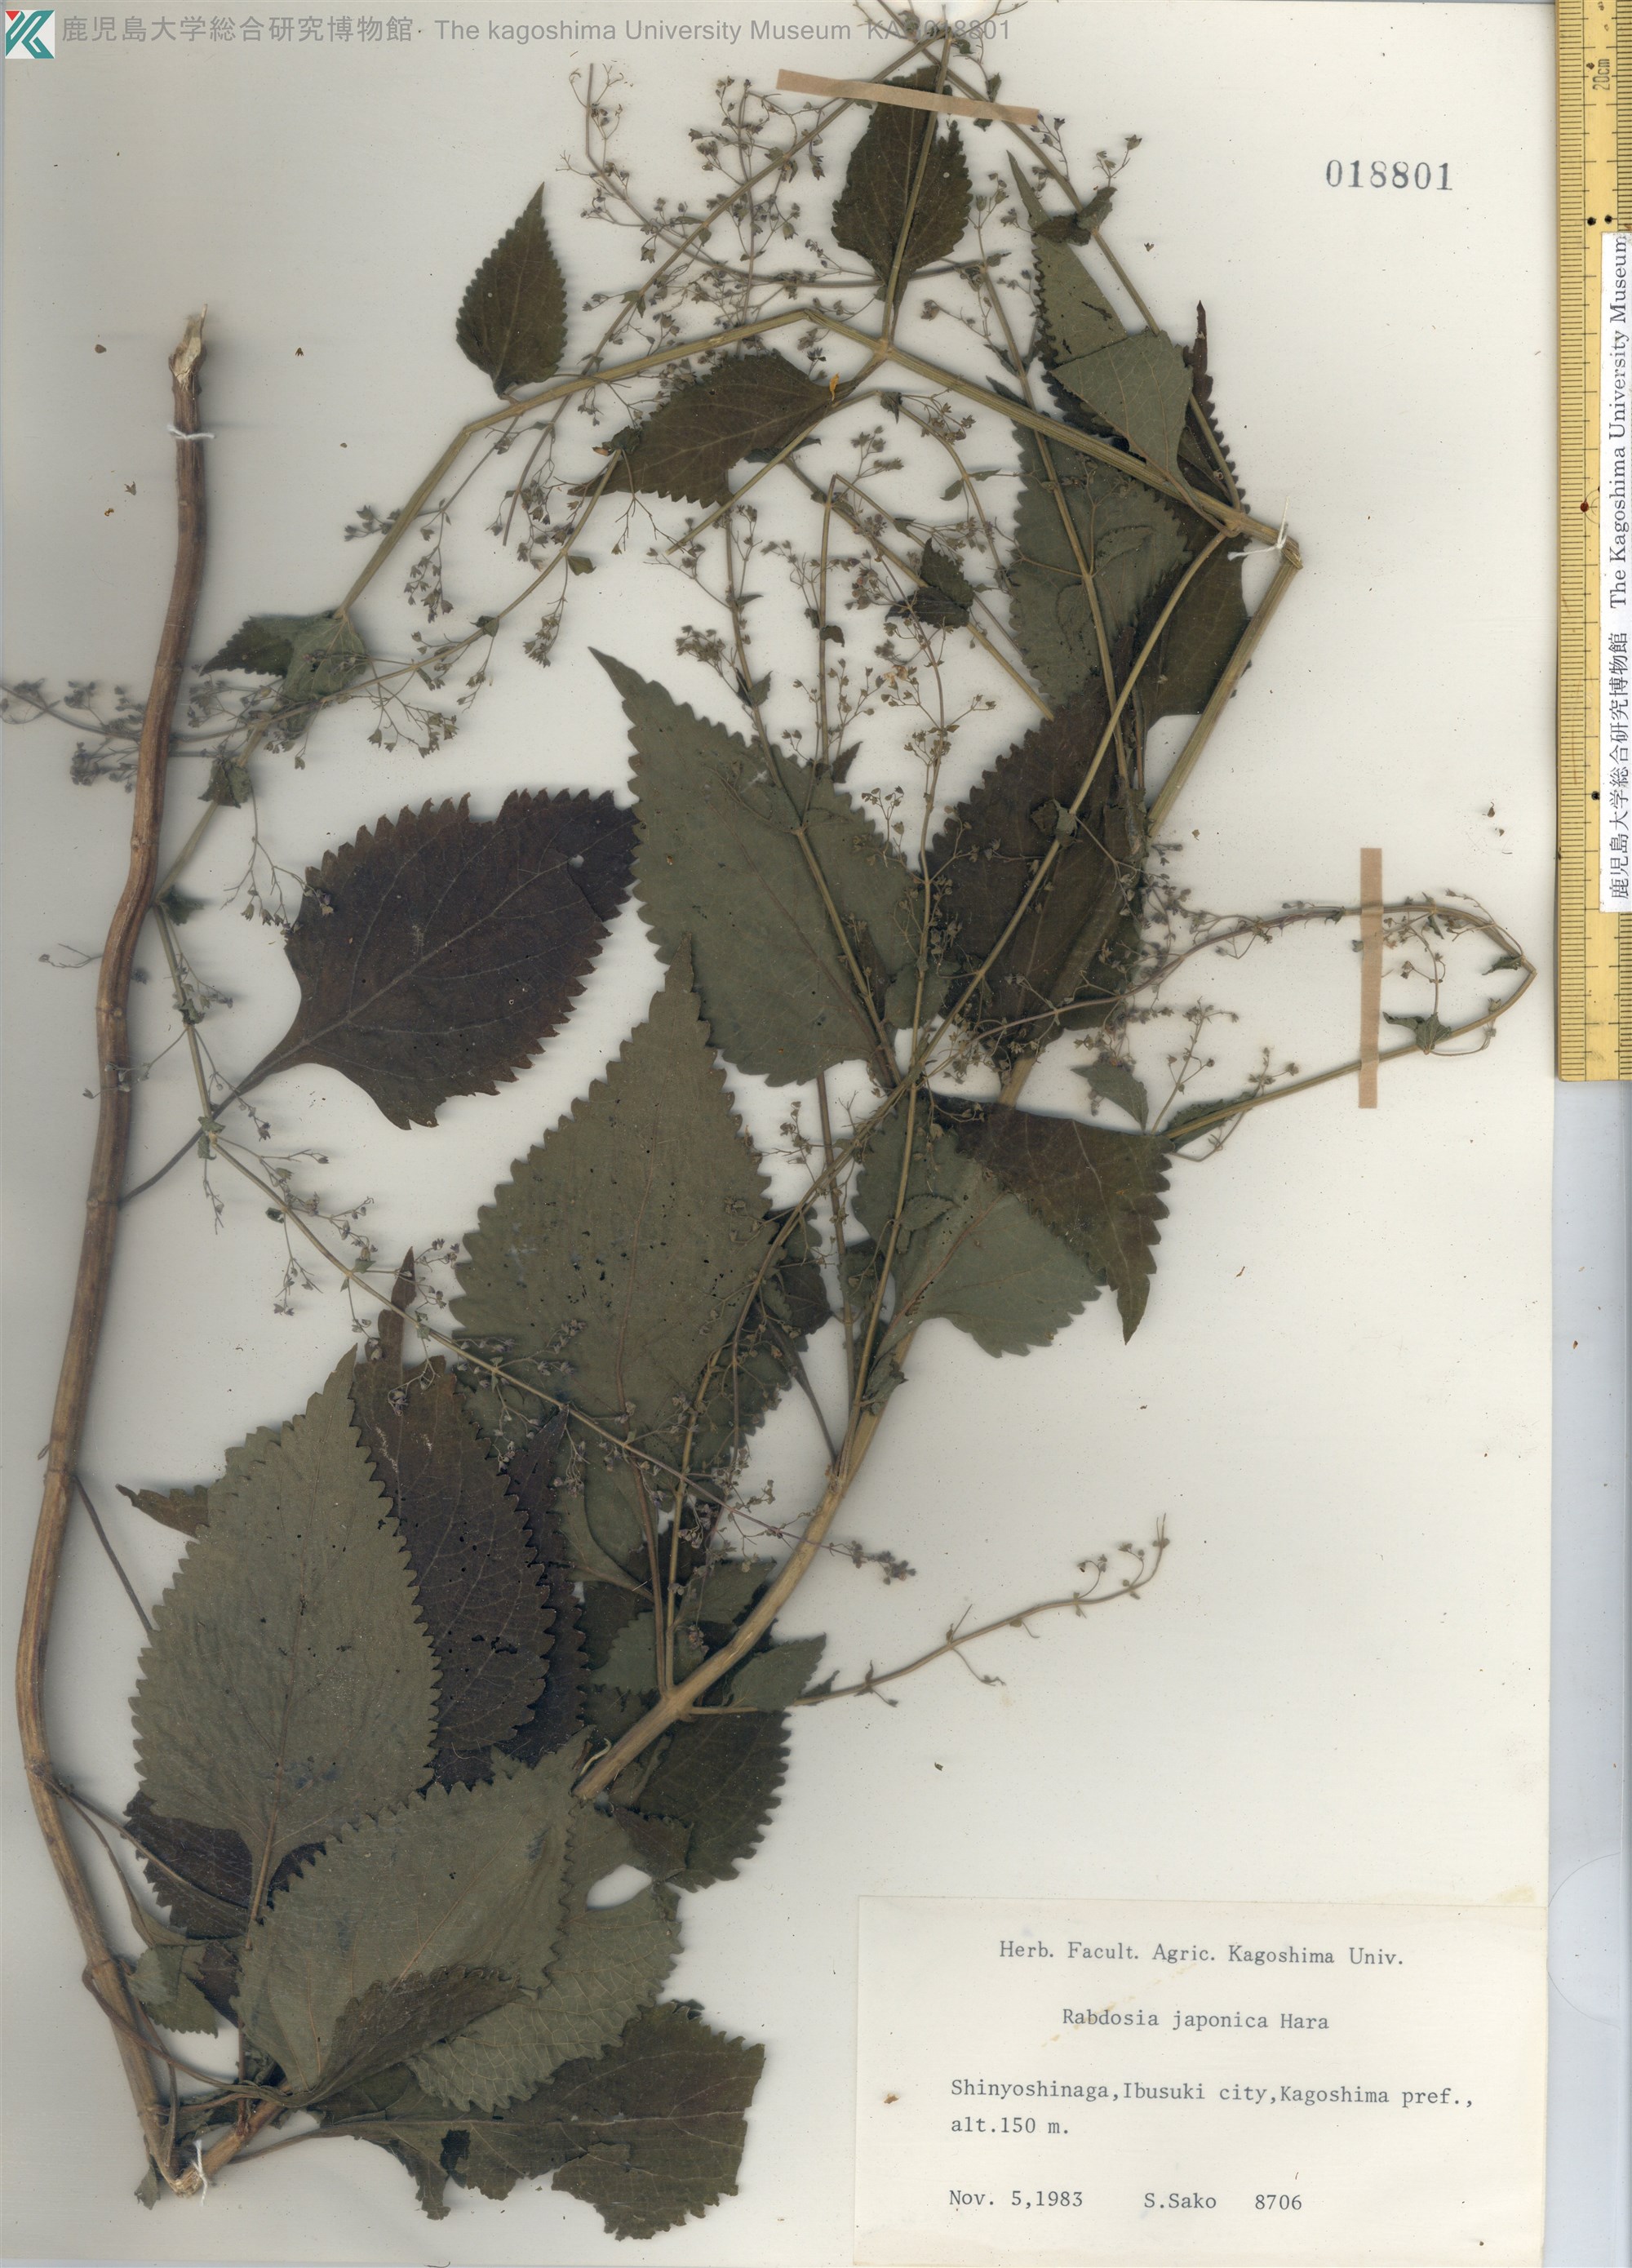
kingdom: Plantae
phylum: Tracheophyta
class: Magnoliopsida
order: Lamiales
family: Lamiaceae
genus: Isodon
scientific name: Isodon japonicus
